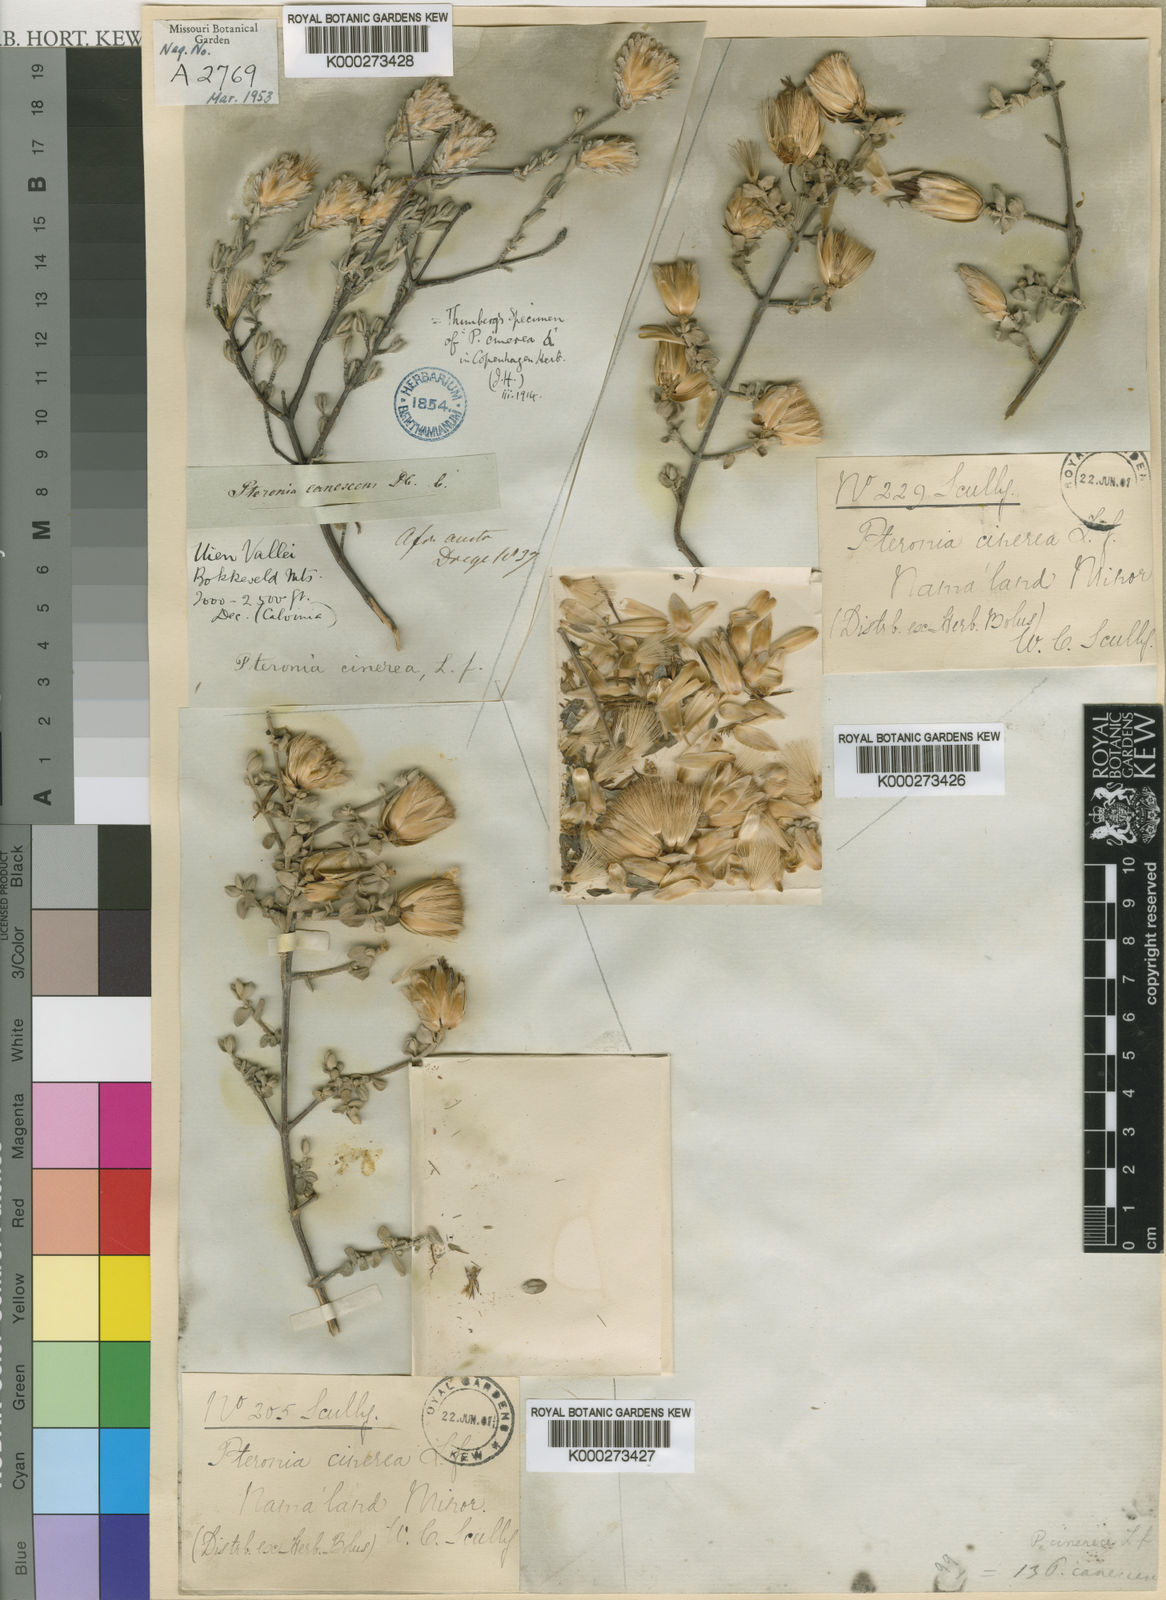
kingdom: Plantae
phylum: Tracheophyta
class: Magnoliopsida
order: Asterales
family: Asteraceae
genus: Pteronia
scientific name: Pteronia cinerea
